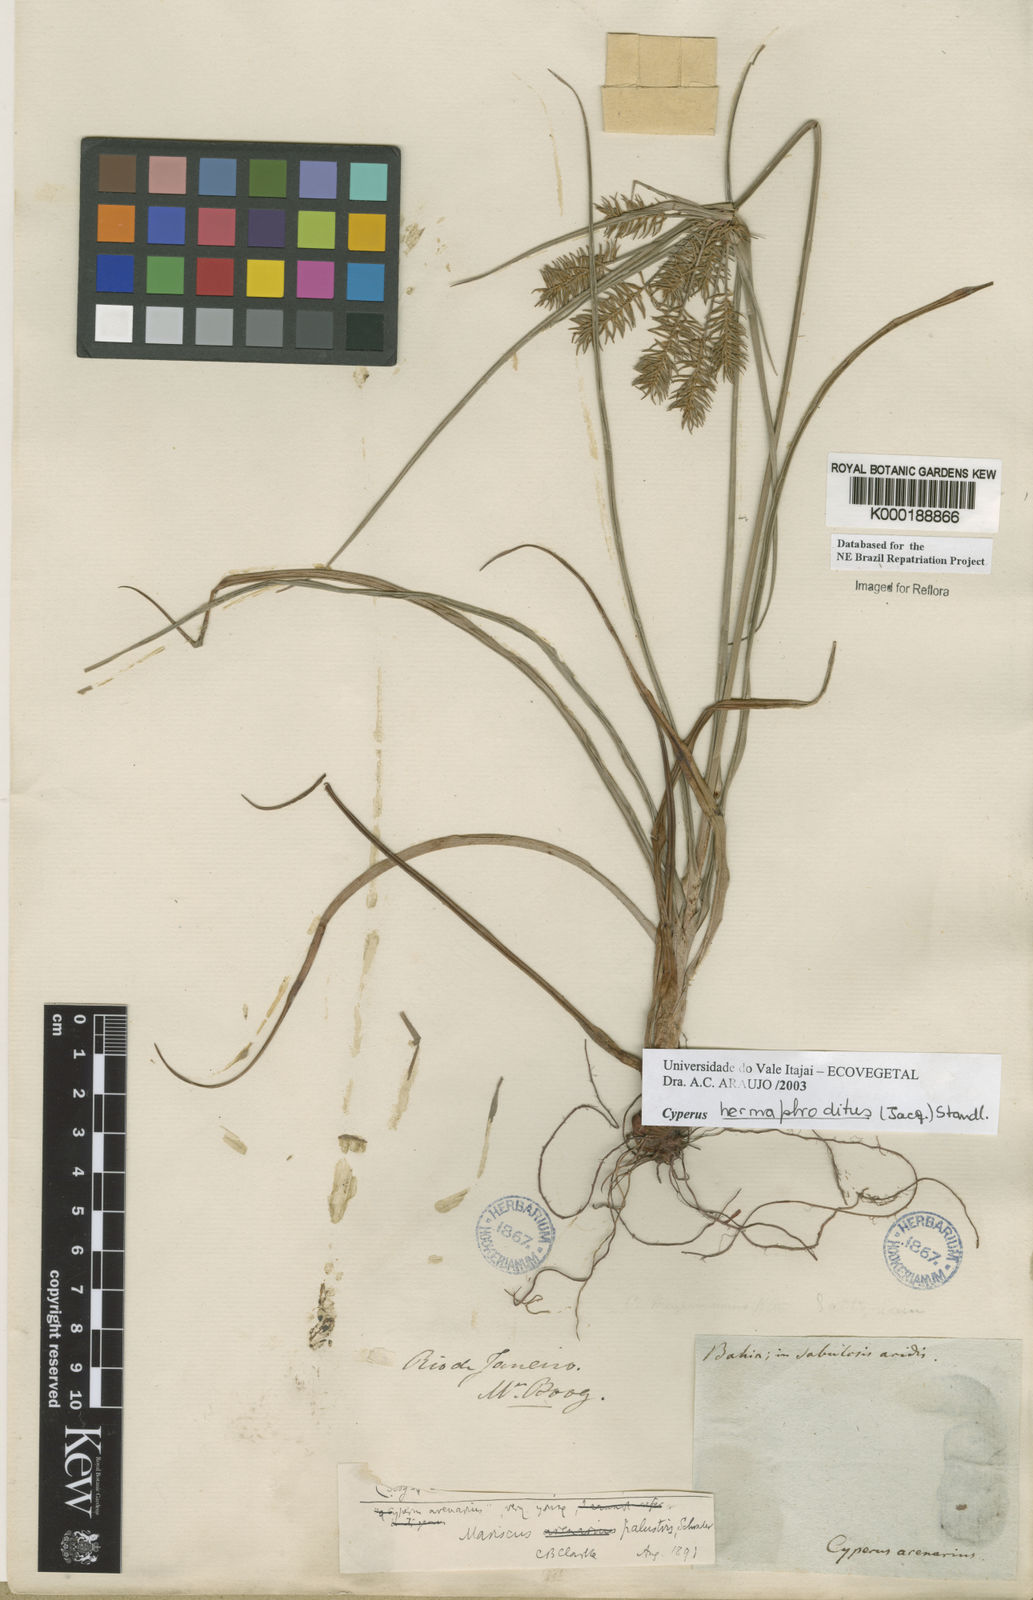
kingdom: Plantae
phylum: Tracheophyta
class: Liliopsida
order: Poales
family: Cyperaceae
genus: Cyperus
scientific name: Cyperus hermaphroditus
